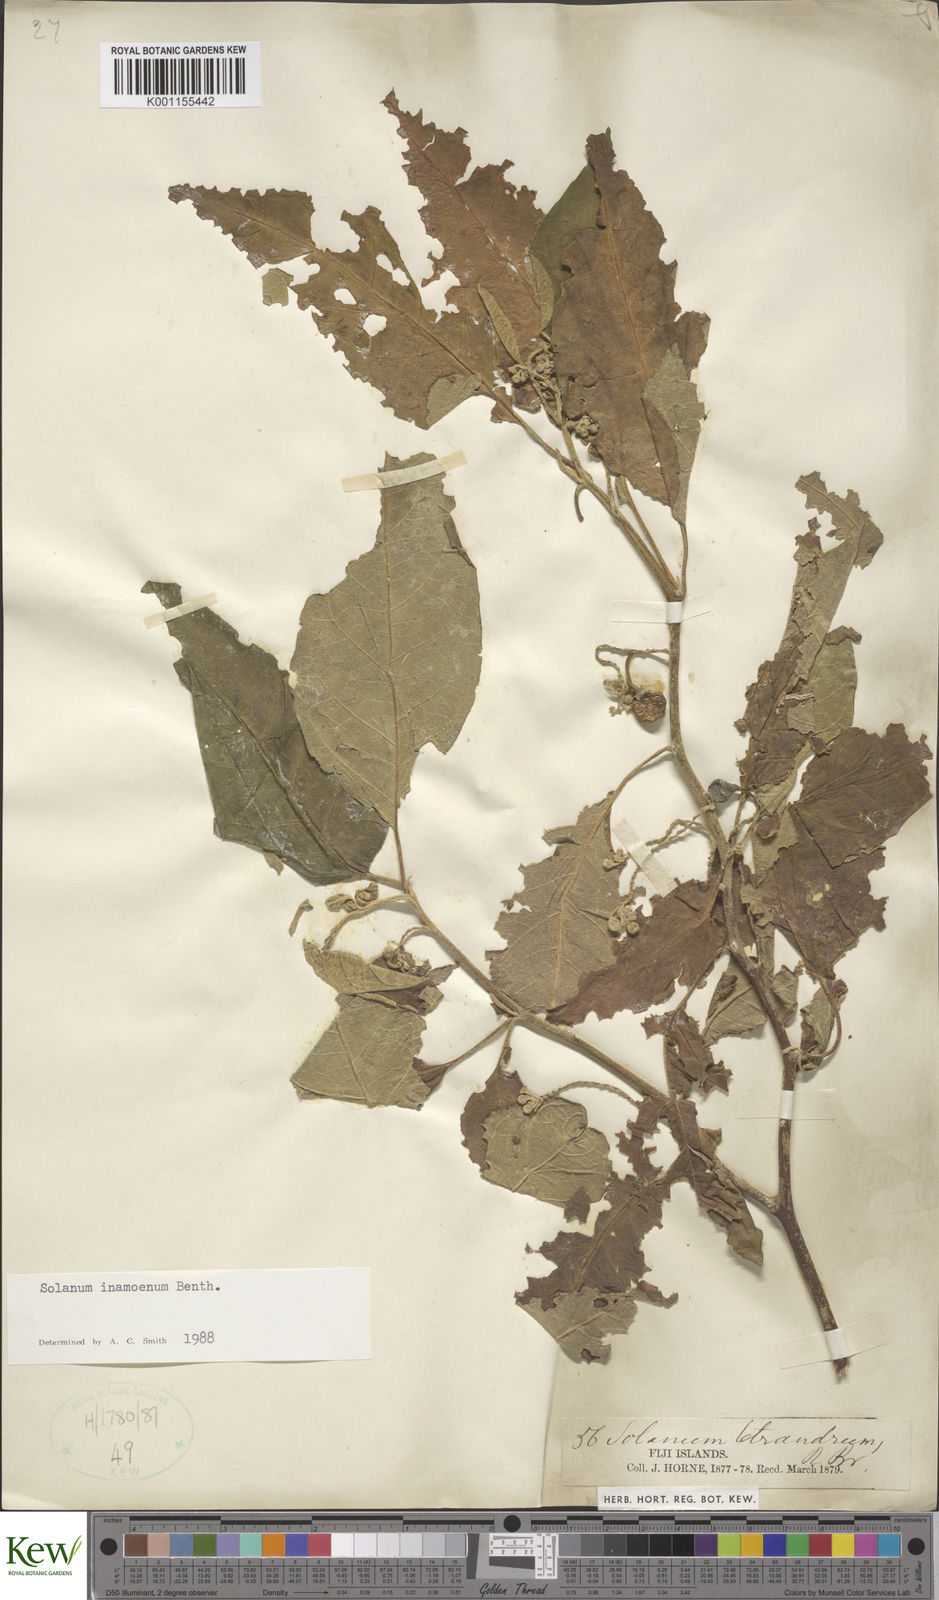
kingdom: Plantae
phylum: Tracheophyta
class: Magnoliopsida
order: Solanales
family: Solanaceae
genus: Solanum
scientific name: Solanum inamoenum
